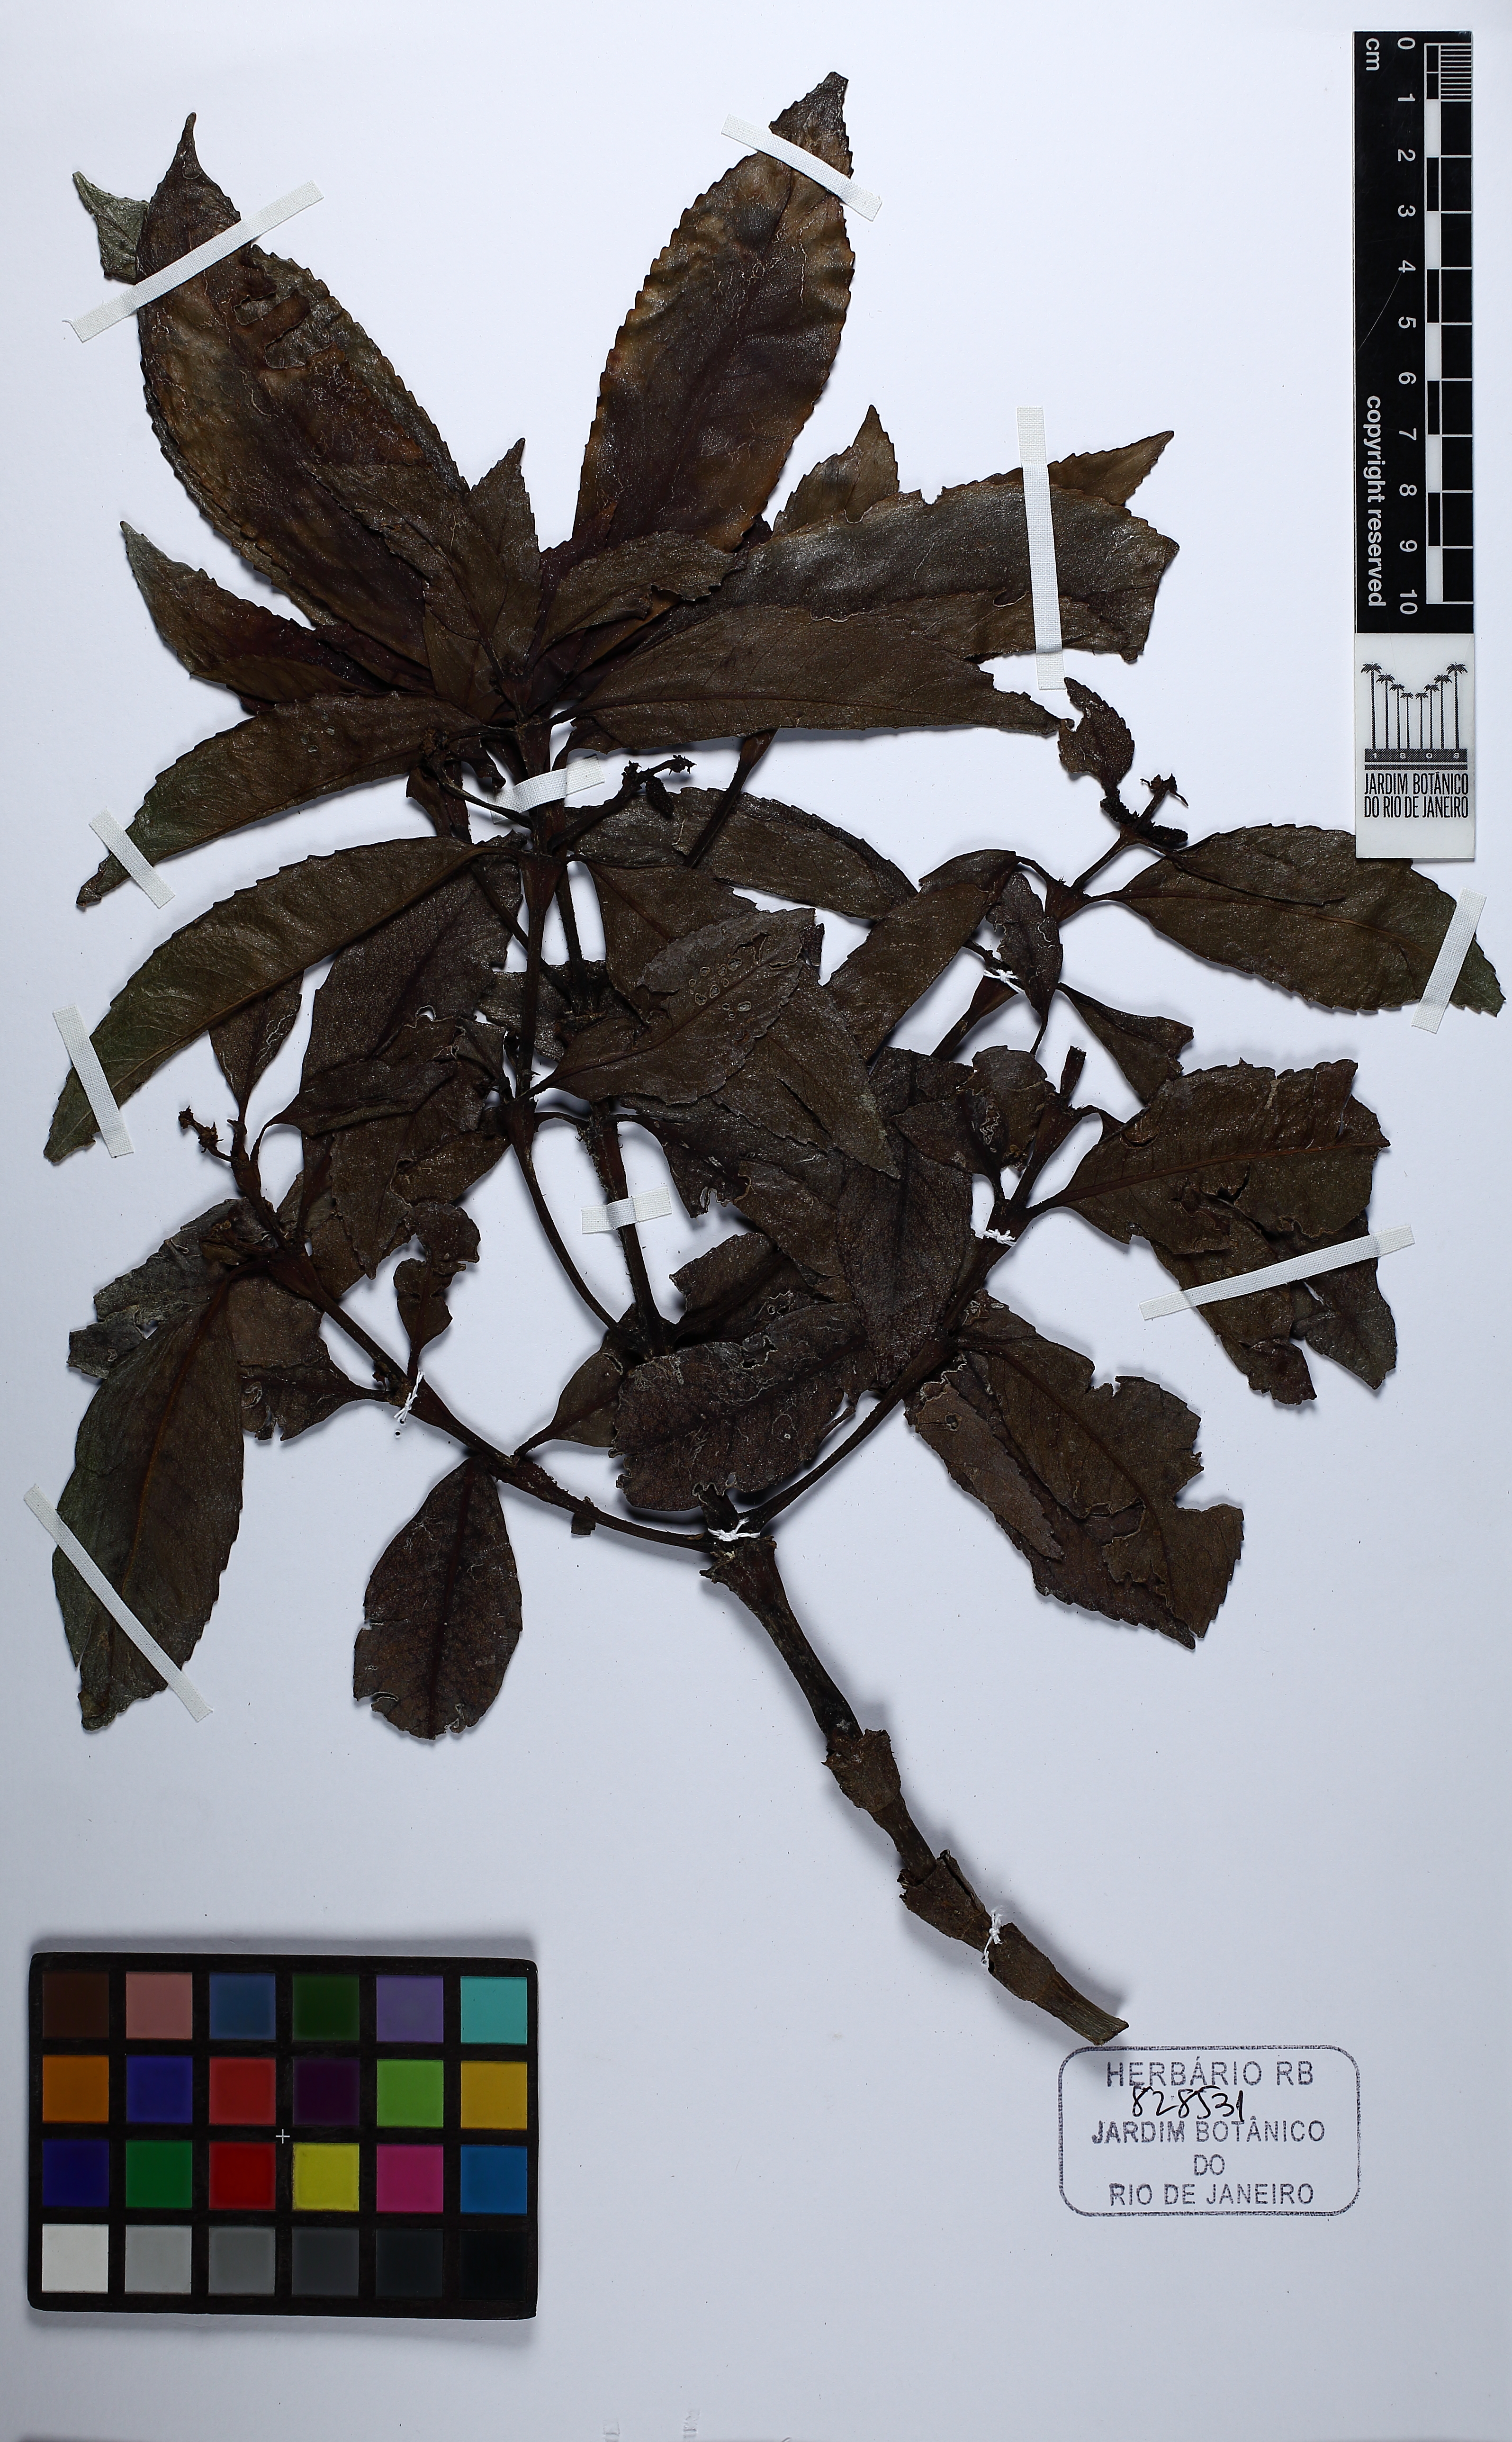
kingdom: Plantae
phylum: Tracheophyta
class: Magnoliopsida
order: Chloranthales
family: Chloranthaceae
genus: Hedyosmum
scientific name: Hedyosmum brasiliense
